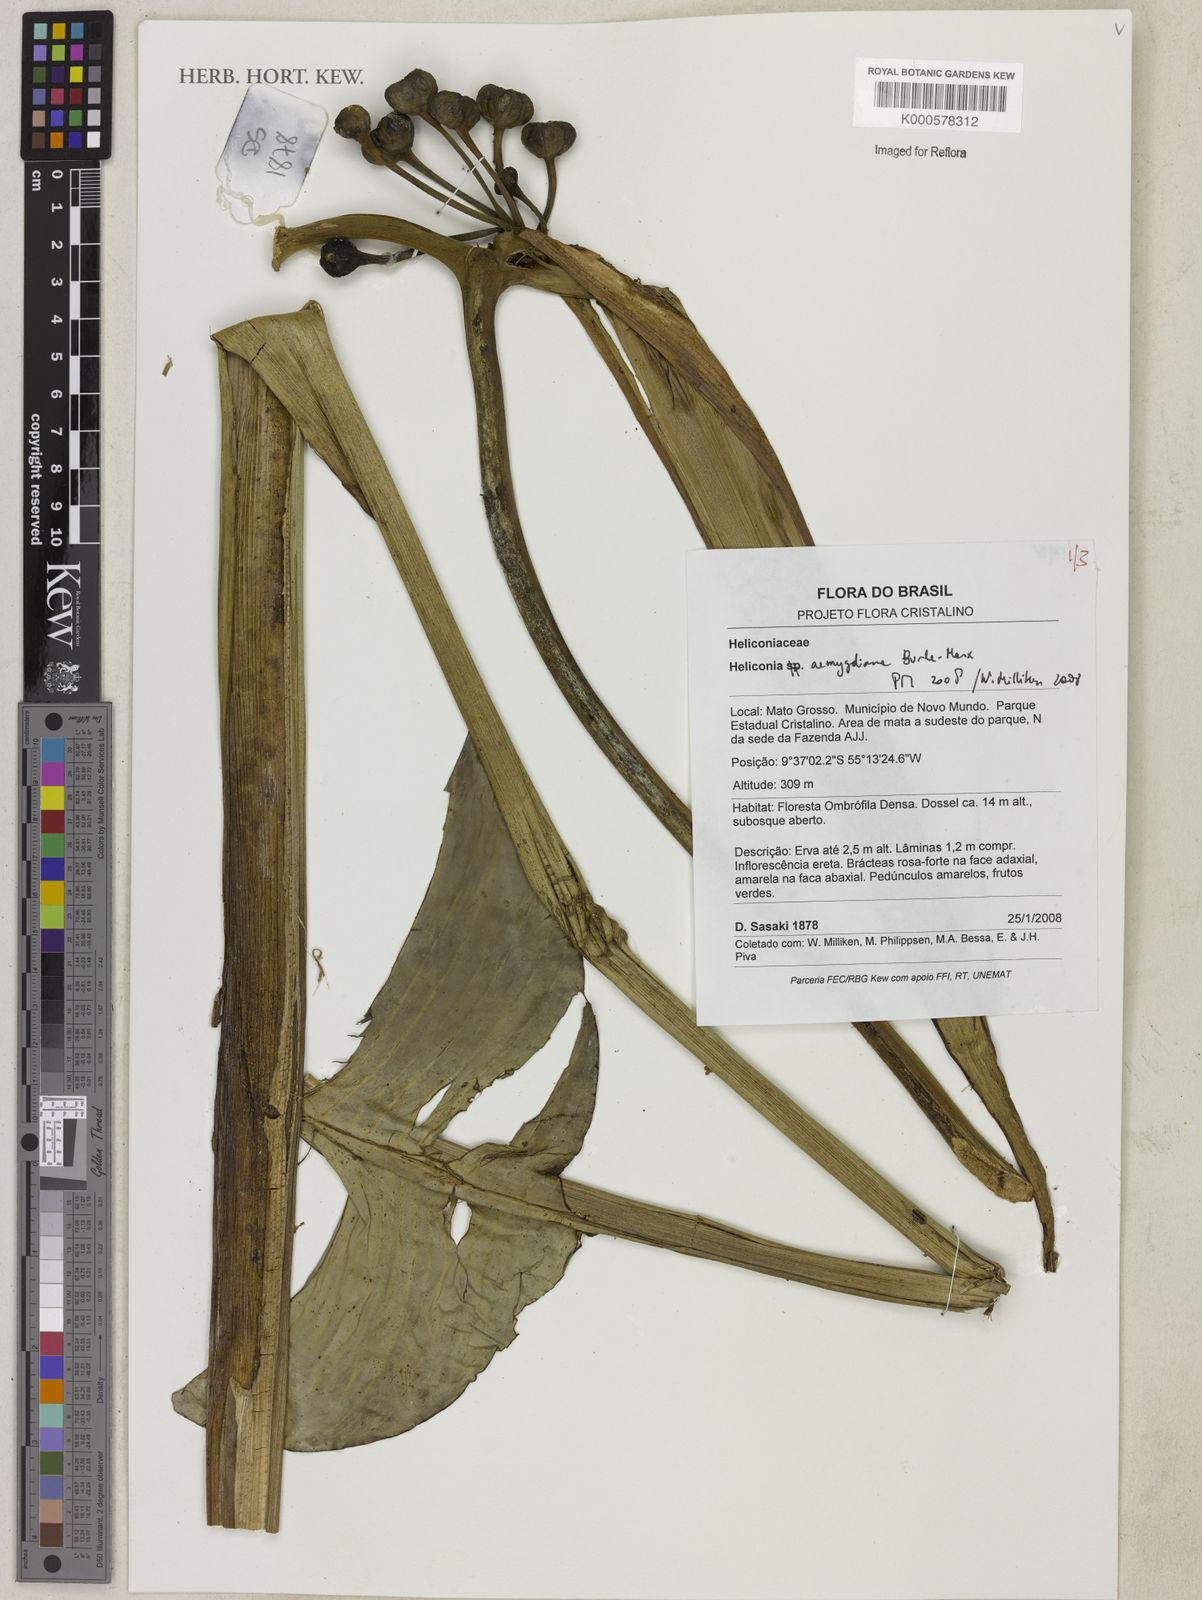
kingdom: Plantae
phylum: Tracheophyta
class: Liliopsida
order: Zingiberales
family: Heliconiaceae
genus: Heliconia
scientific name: Heliconia aemygdiana
